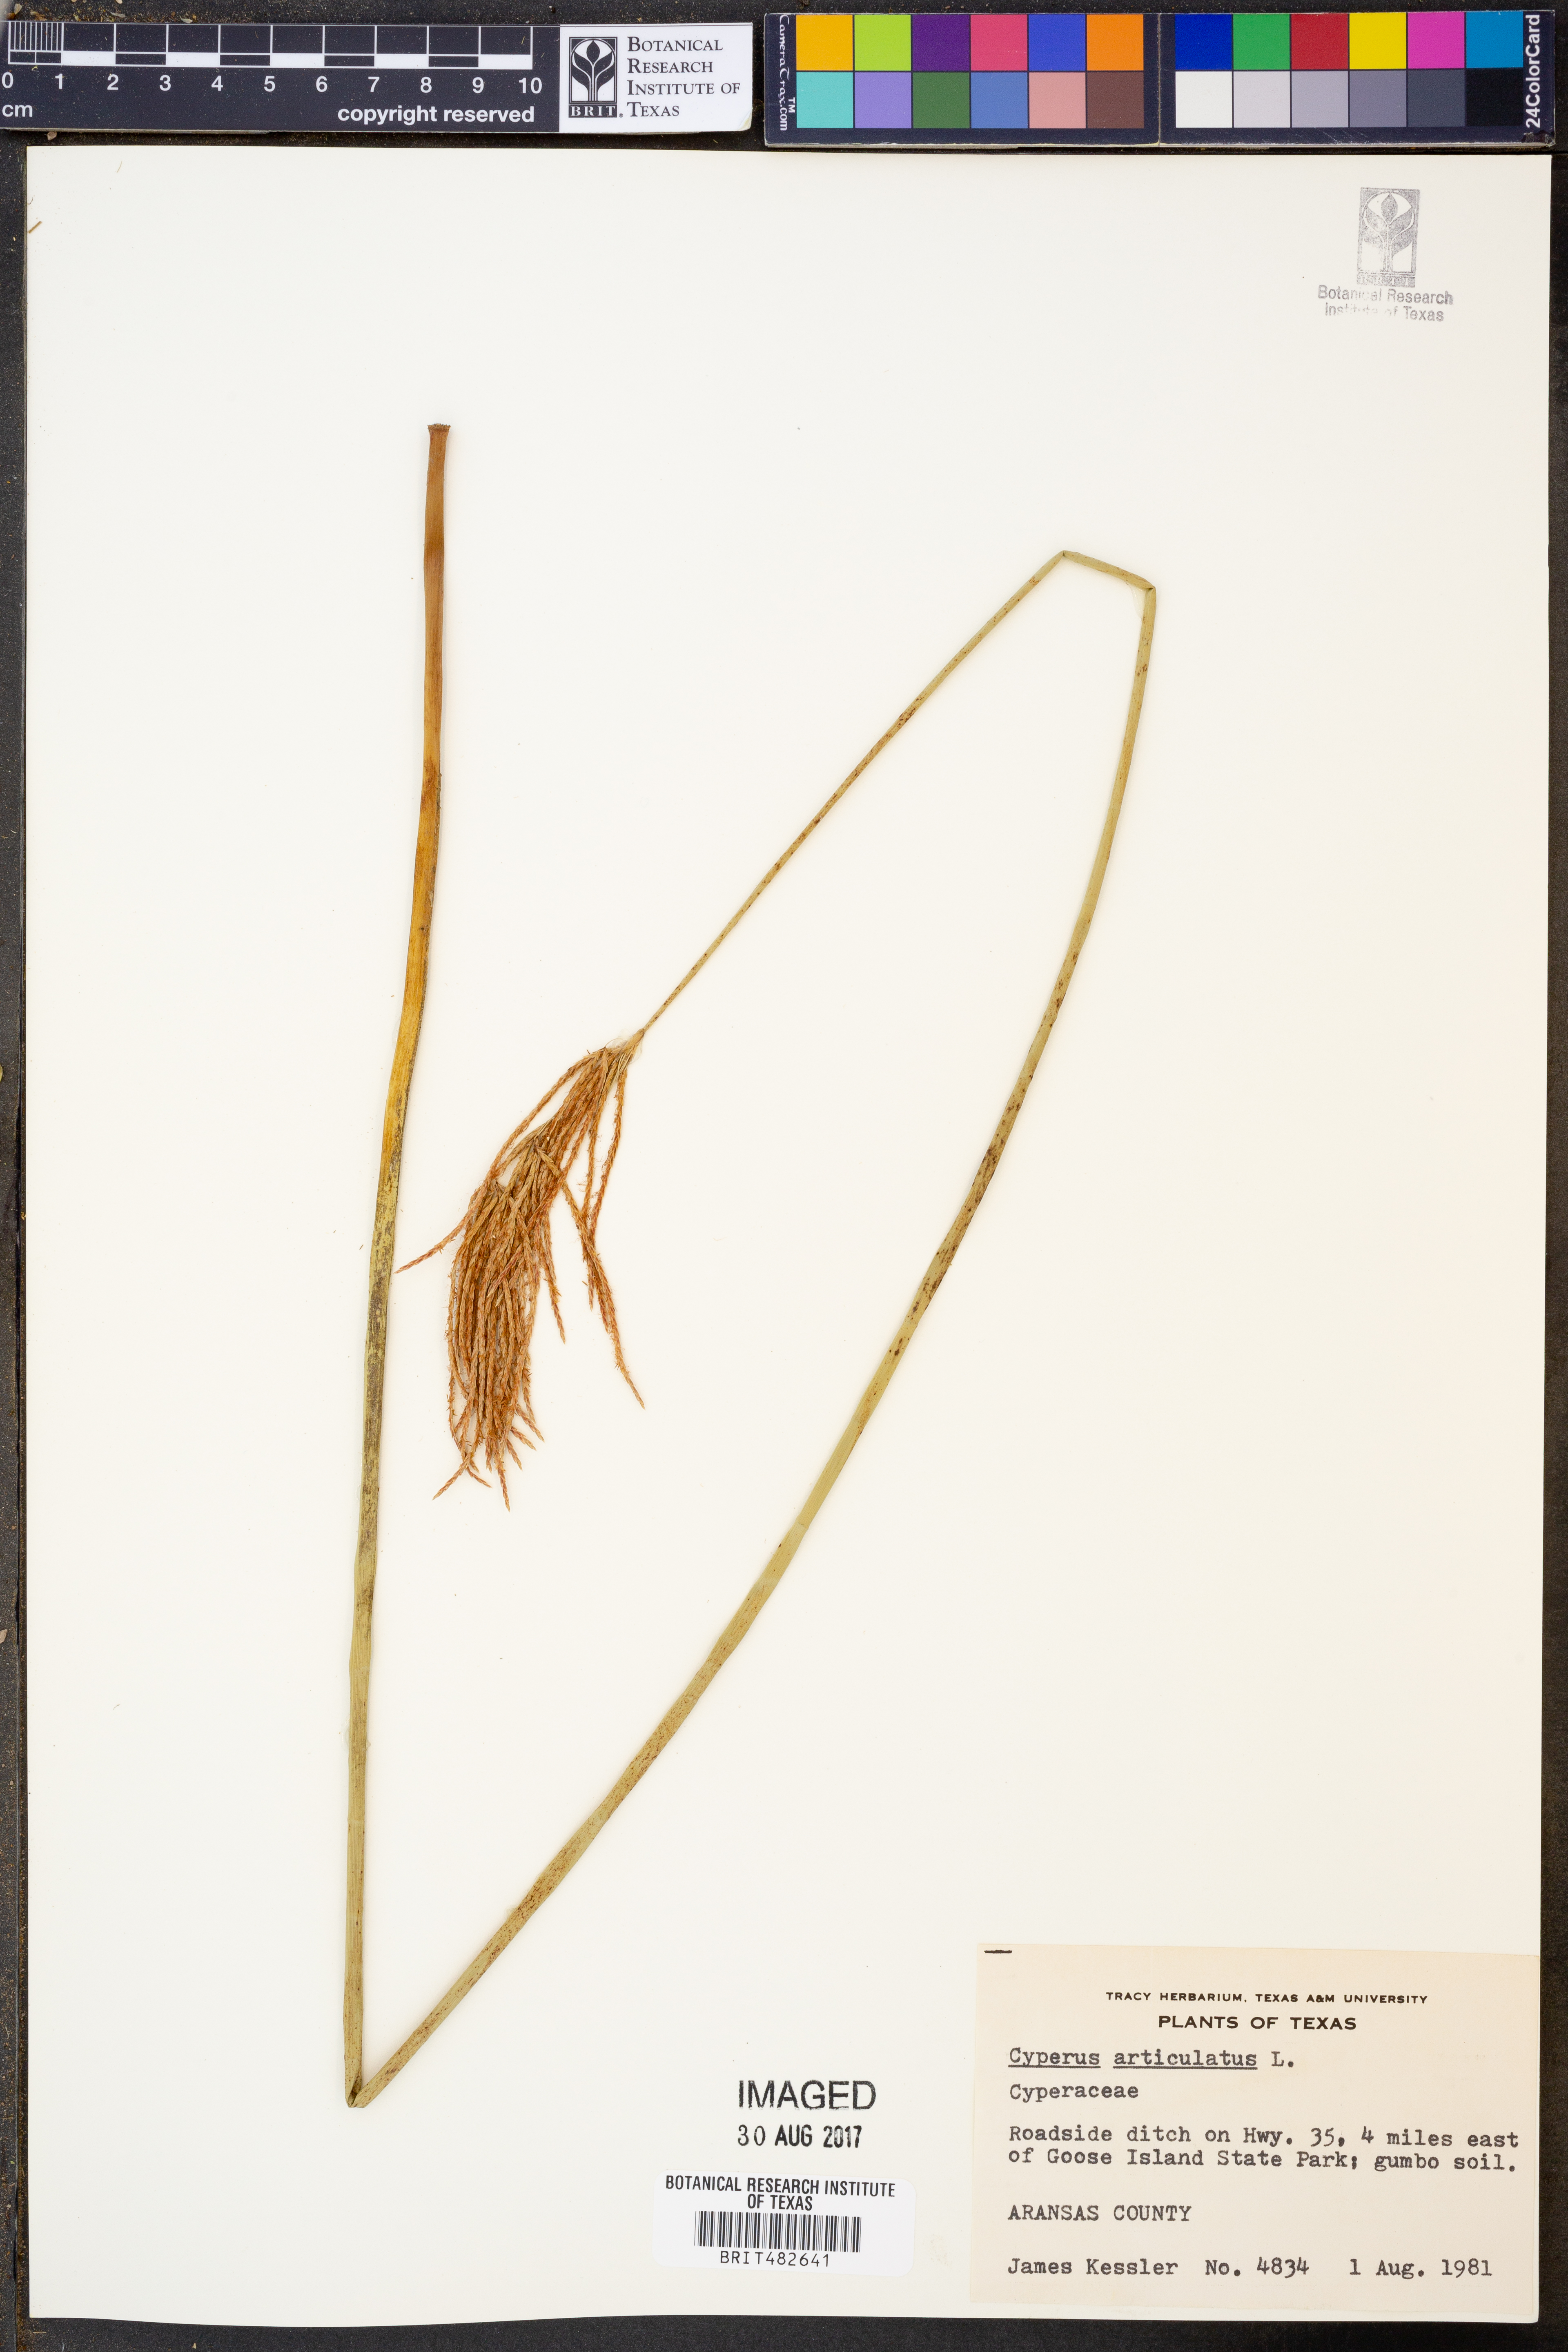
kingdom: Plantae
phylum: Tracheophyta
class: Liliopsida
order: Poales
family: Cyperaceae
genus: Cyperus
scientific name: Cyperus articulatus
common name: Jointed flatsedge
